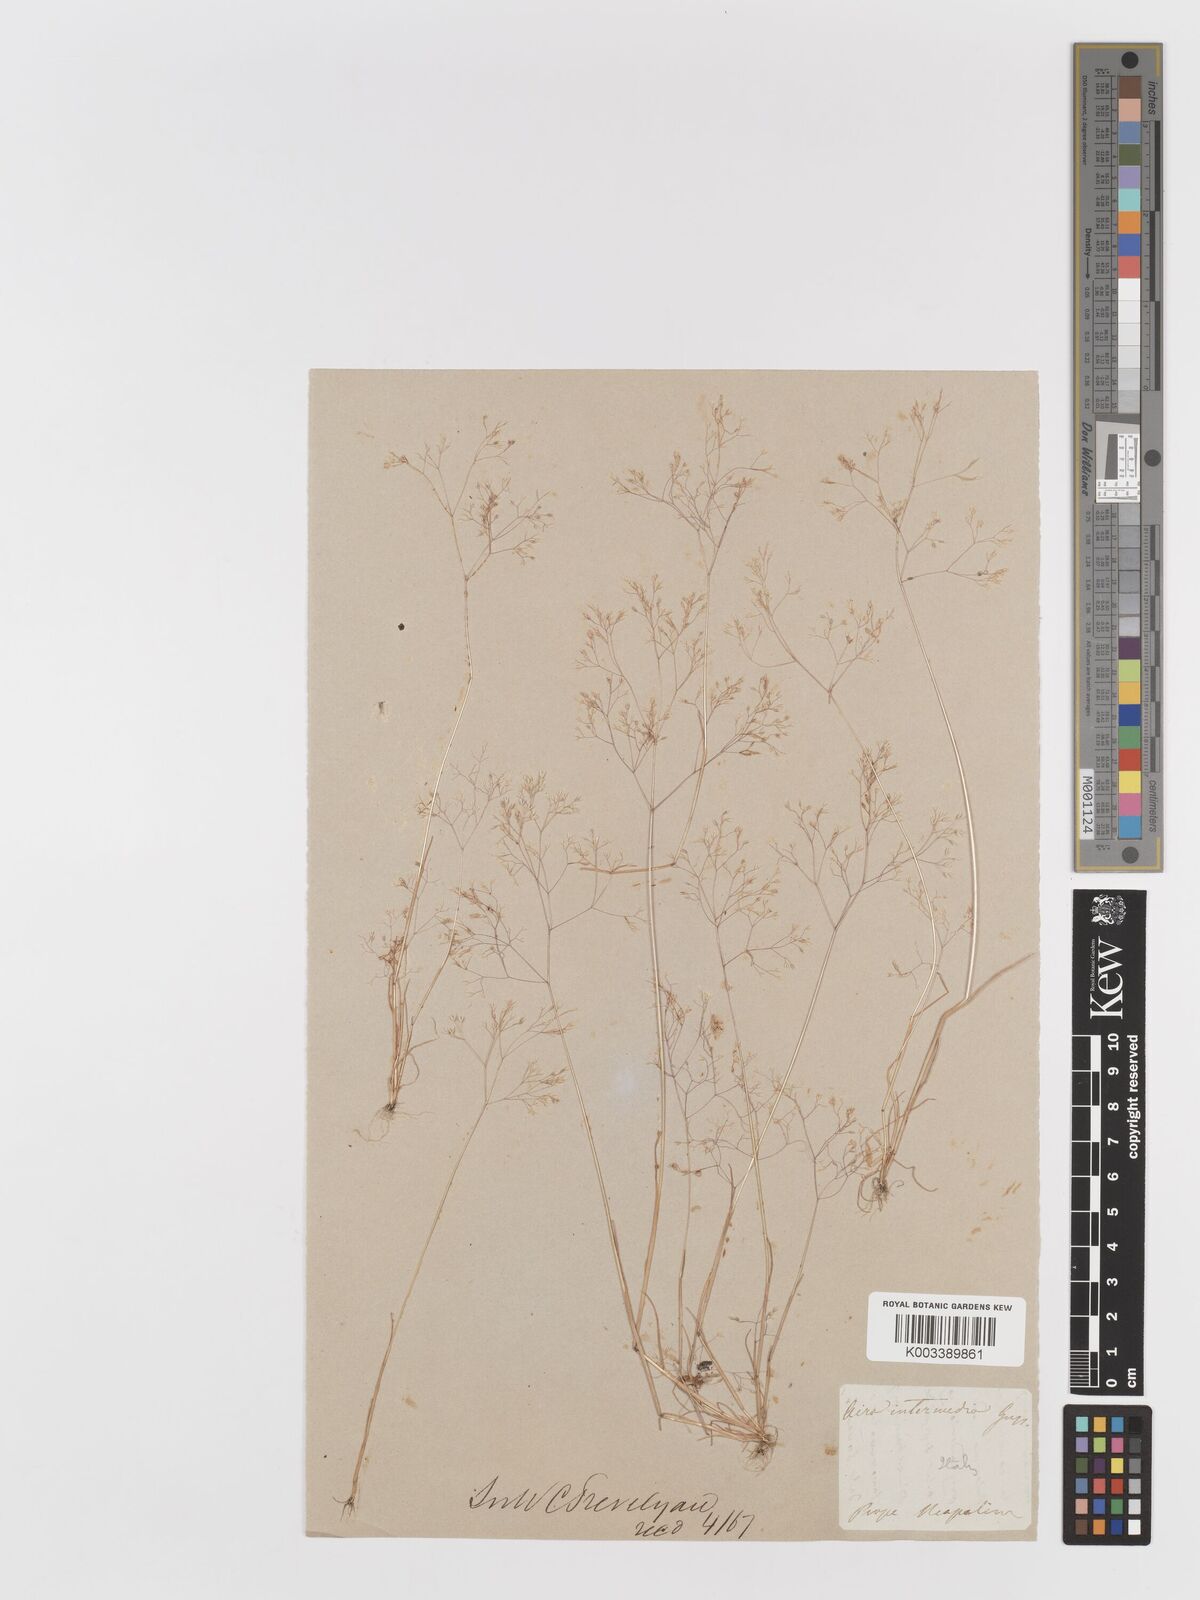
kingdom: Plantae
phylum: Tracheophyta
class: Liliopsida
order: Poales
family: Poaceae
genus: Aira
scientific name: Aira elegans
